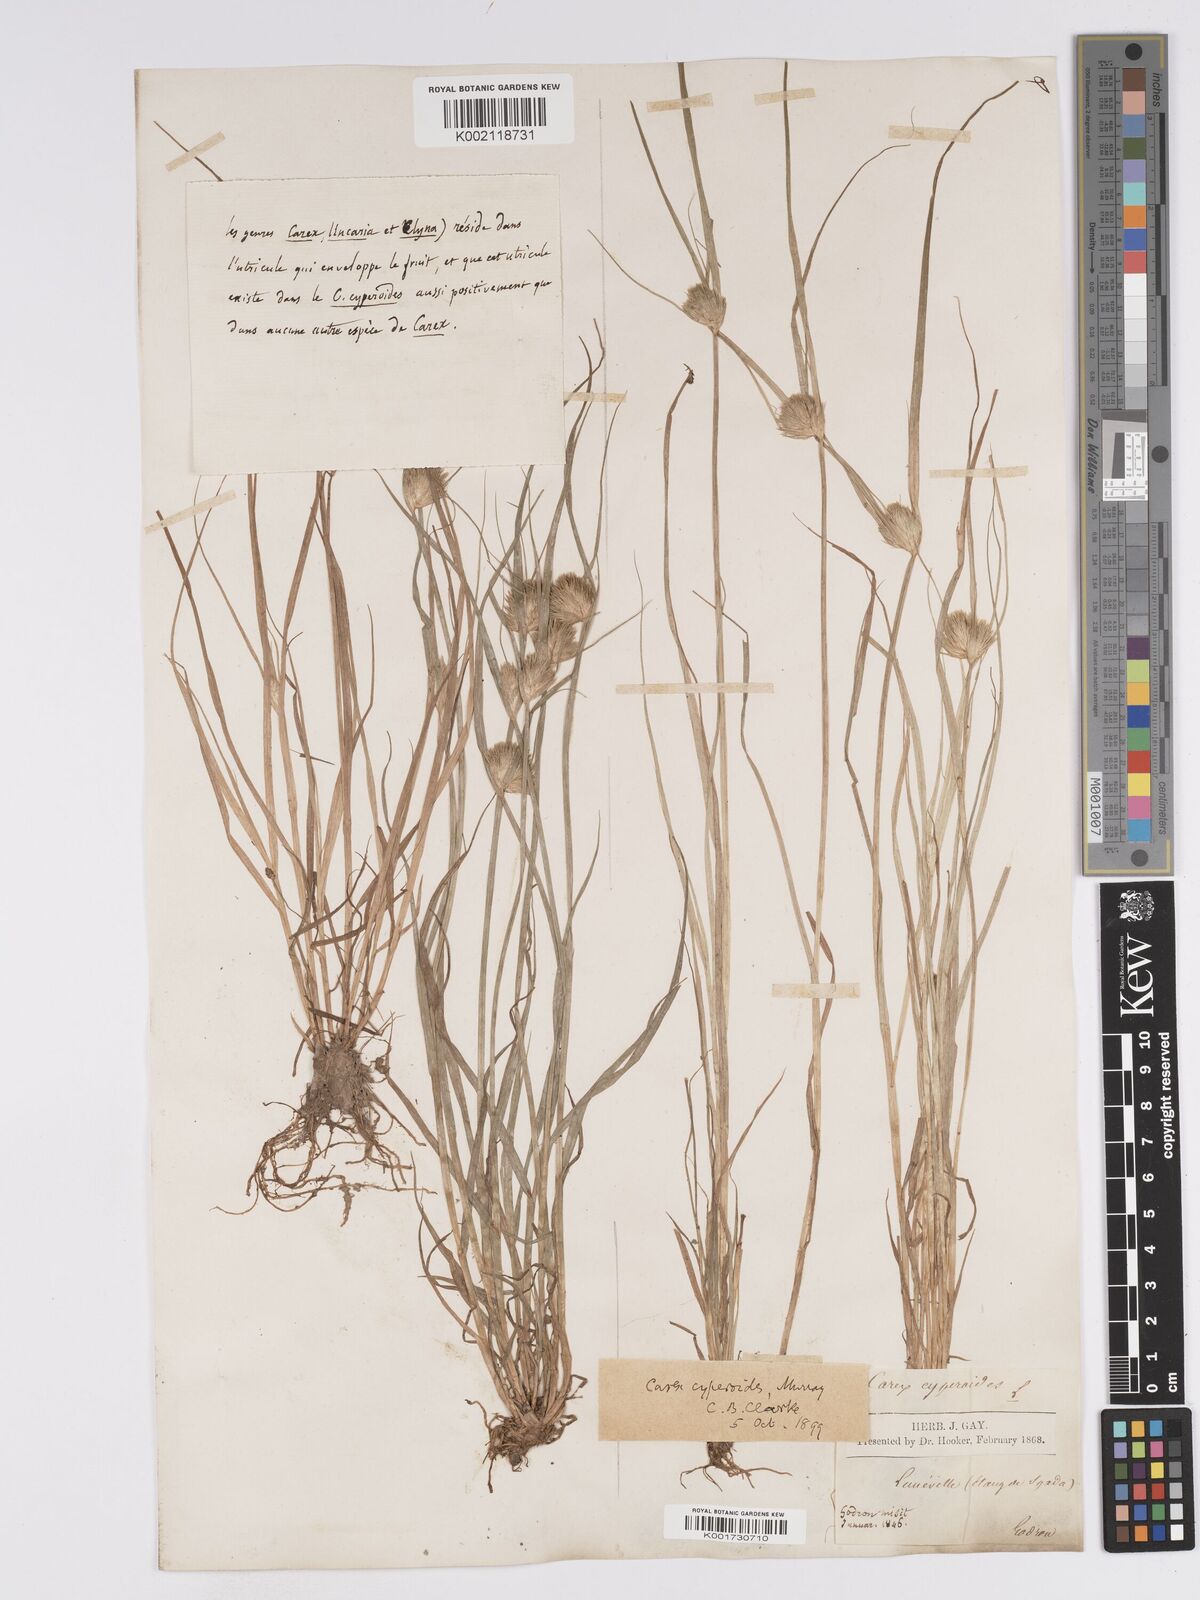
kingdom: Plantae
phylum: Tracheophyta
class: Liliopsida
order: Poales
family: Cyperaceae
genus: Carex
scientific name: Carex bohemica
